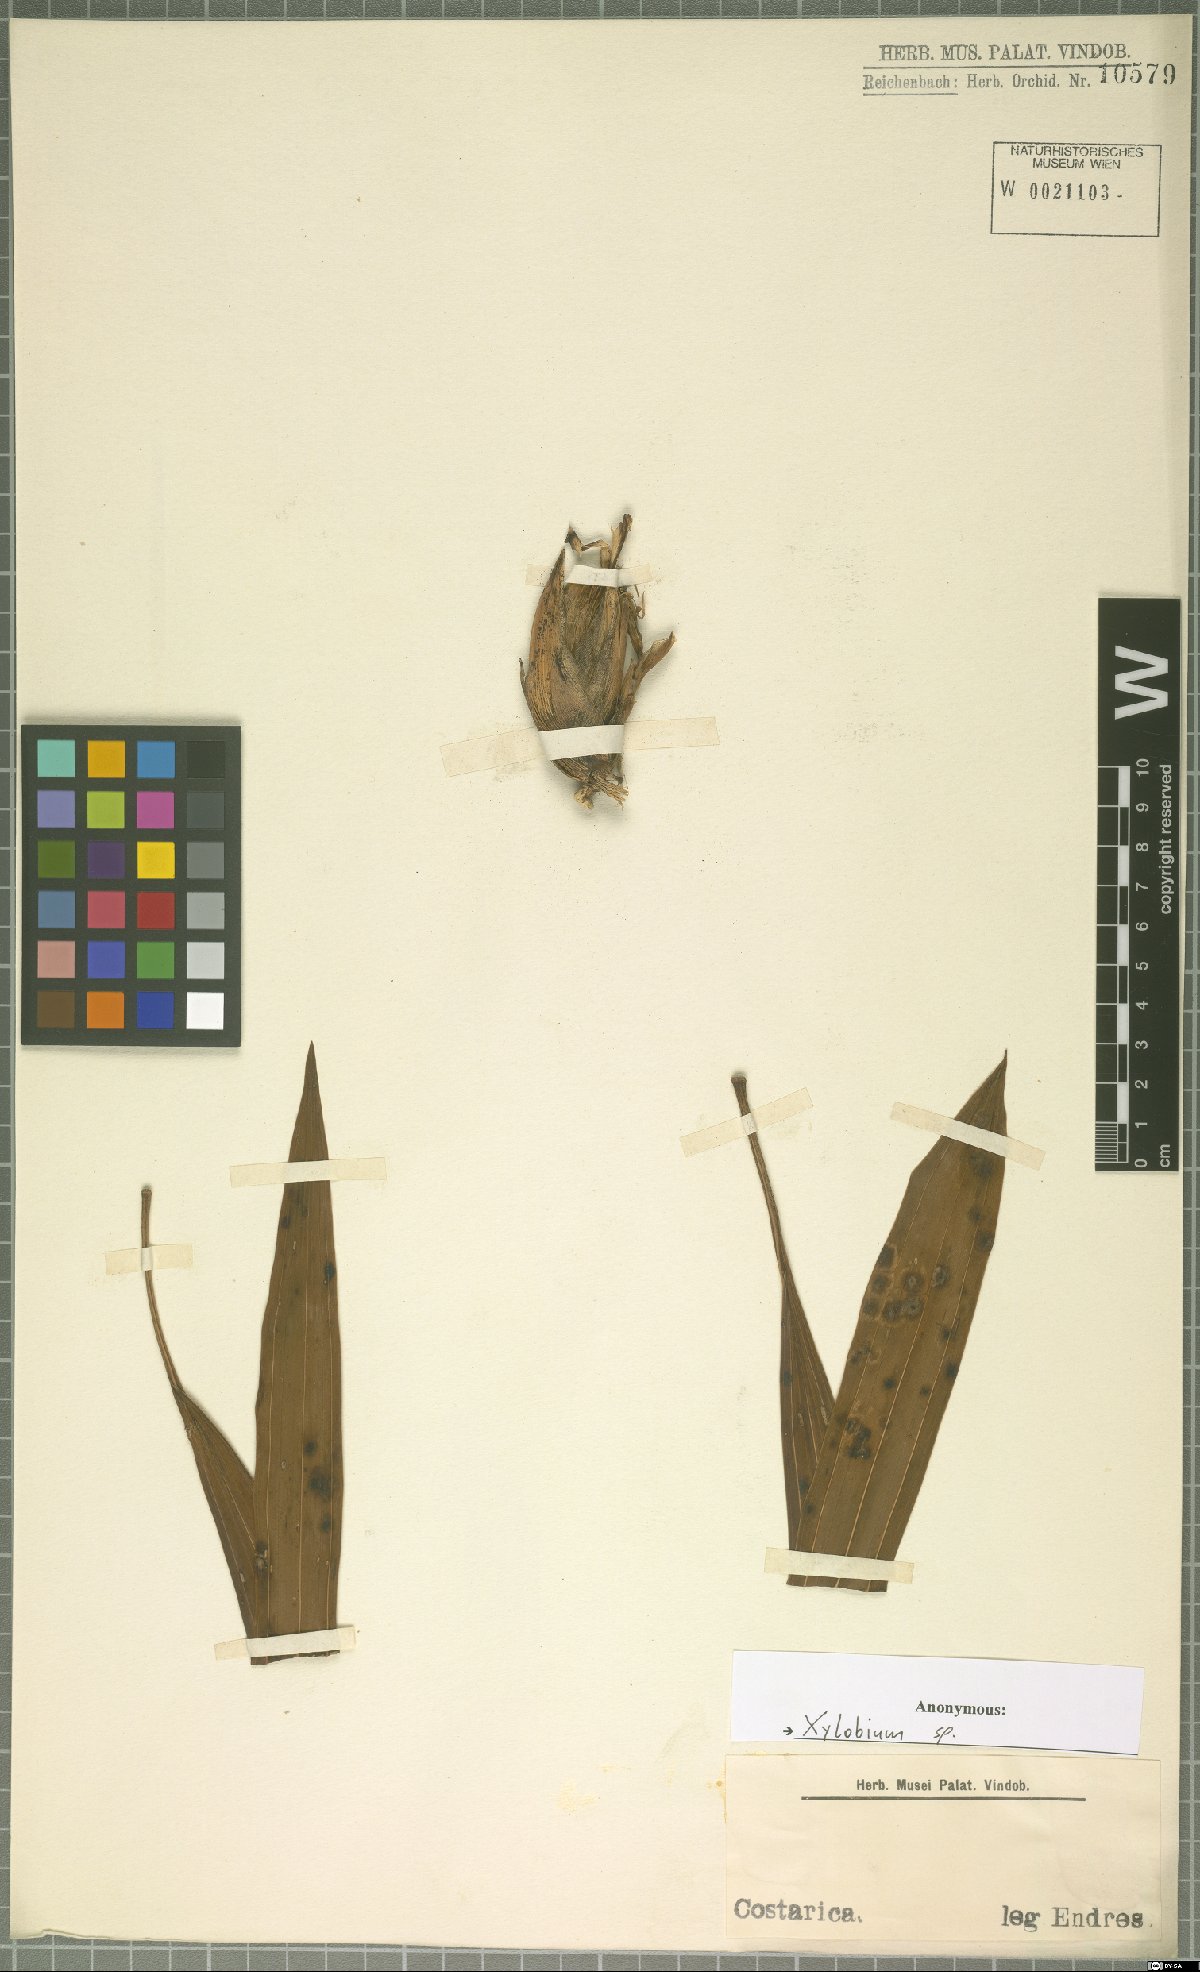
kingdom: Plantae
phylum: Tracheophyta
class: Liliopsida
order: Asparagales
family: Orchidaceae
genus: Xylobium
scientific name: Xylobium
